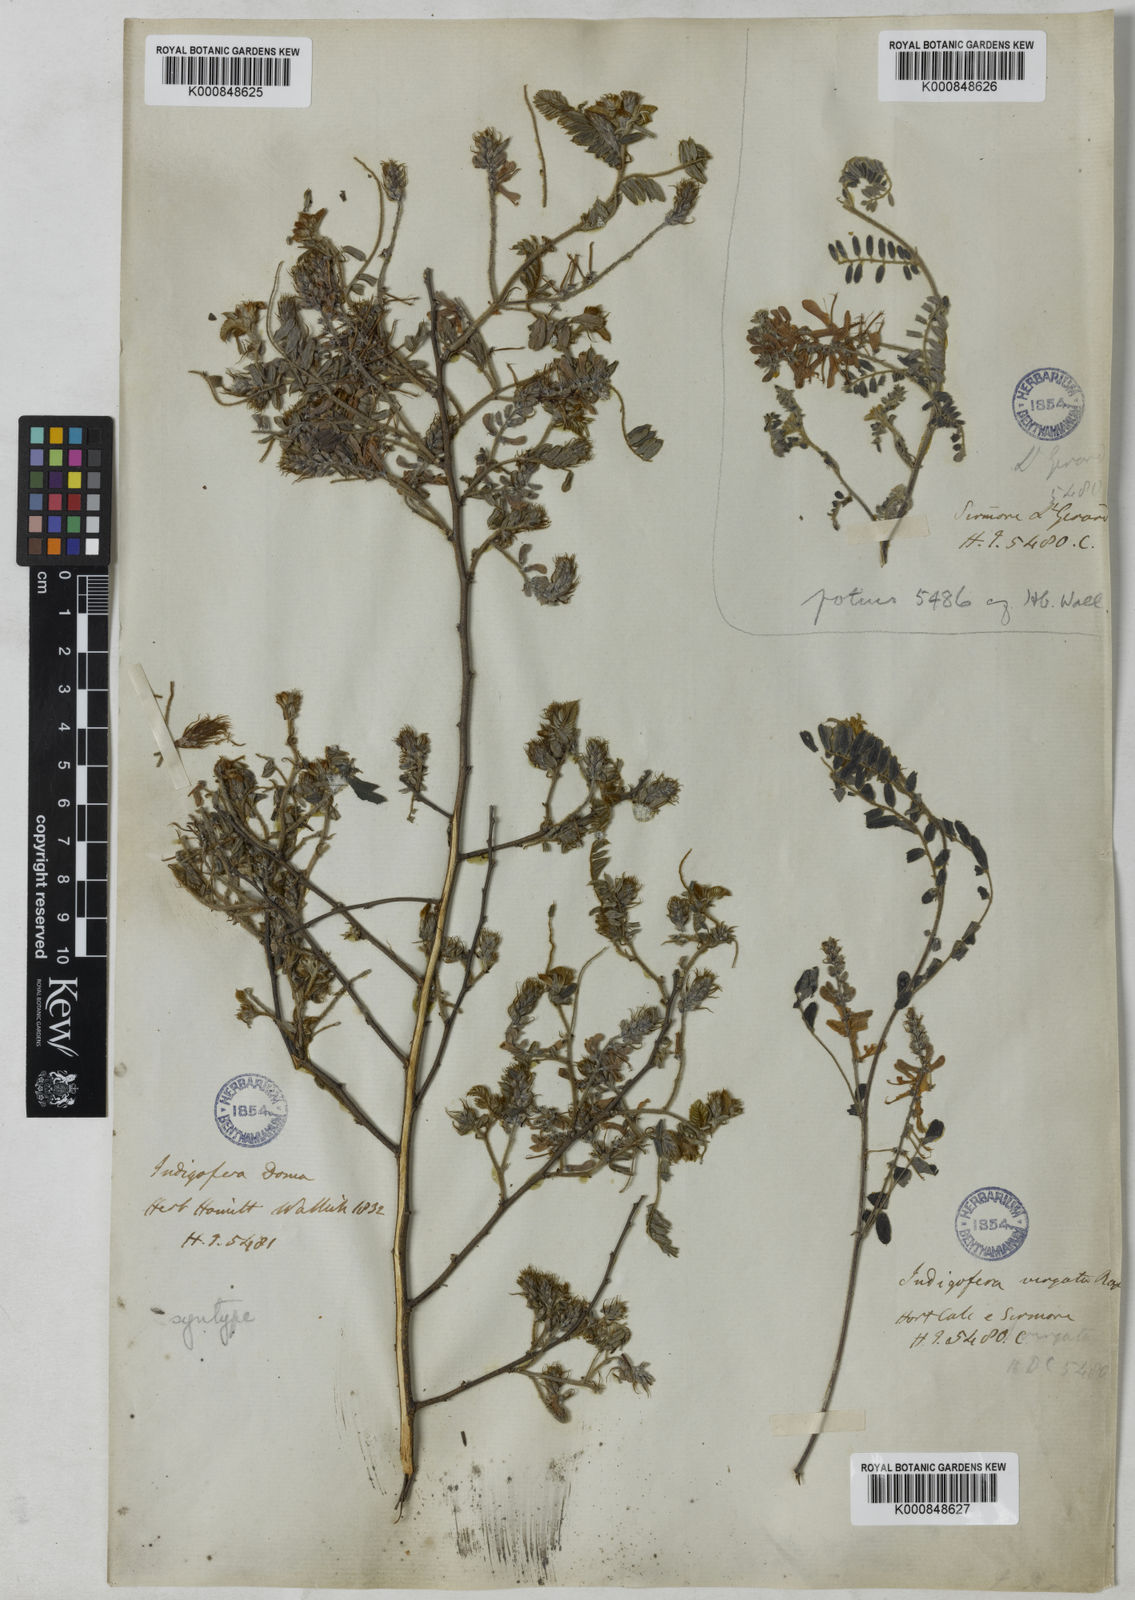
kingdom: Plantae
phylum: Tracheophyta
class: Magnoliopsida
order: Fabales
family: Fabaceae
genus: Indigofera
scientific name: Indigofera dosua
